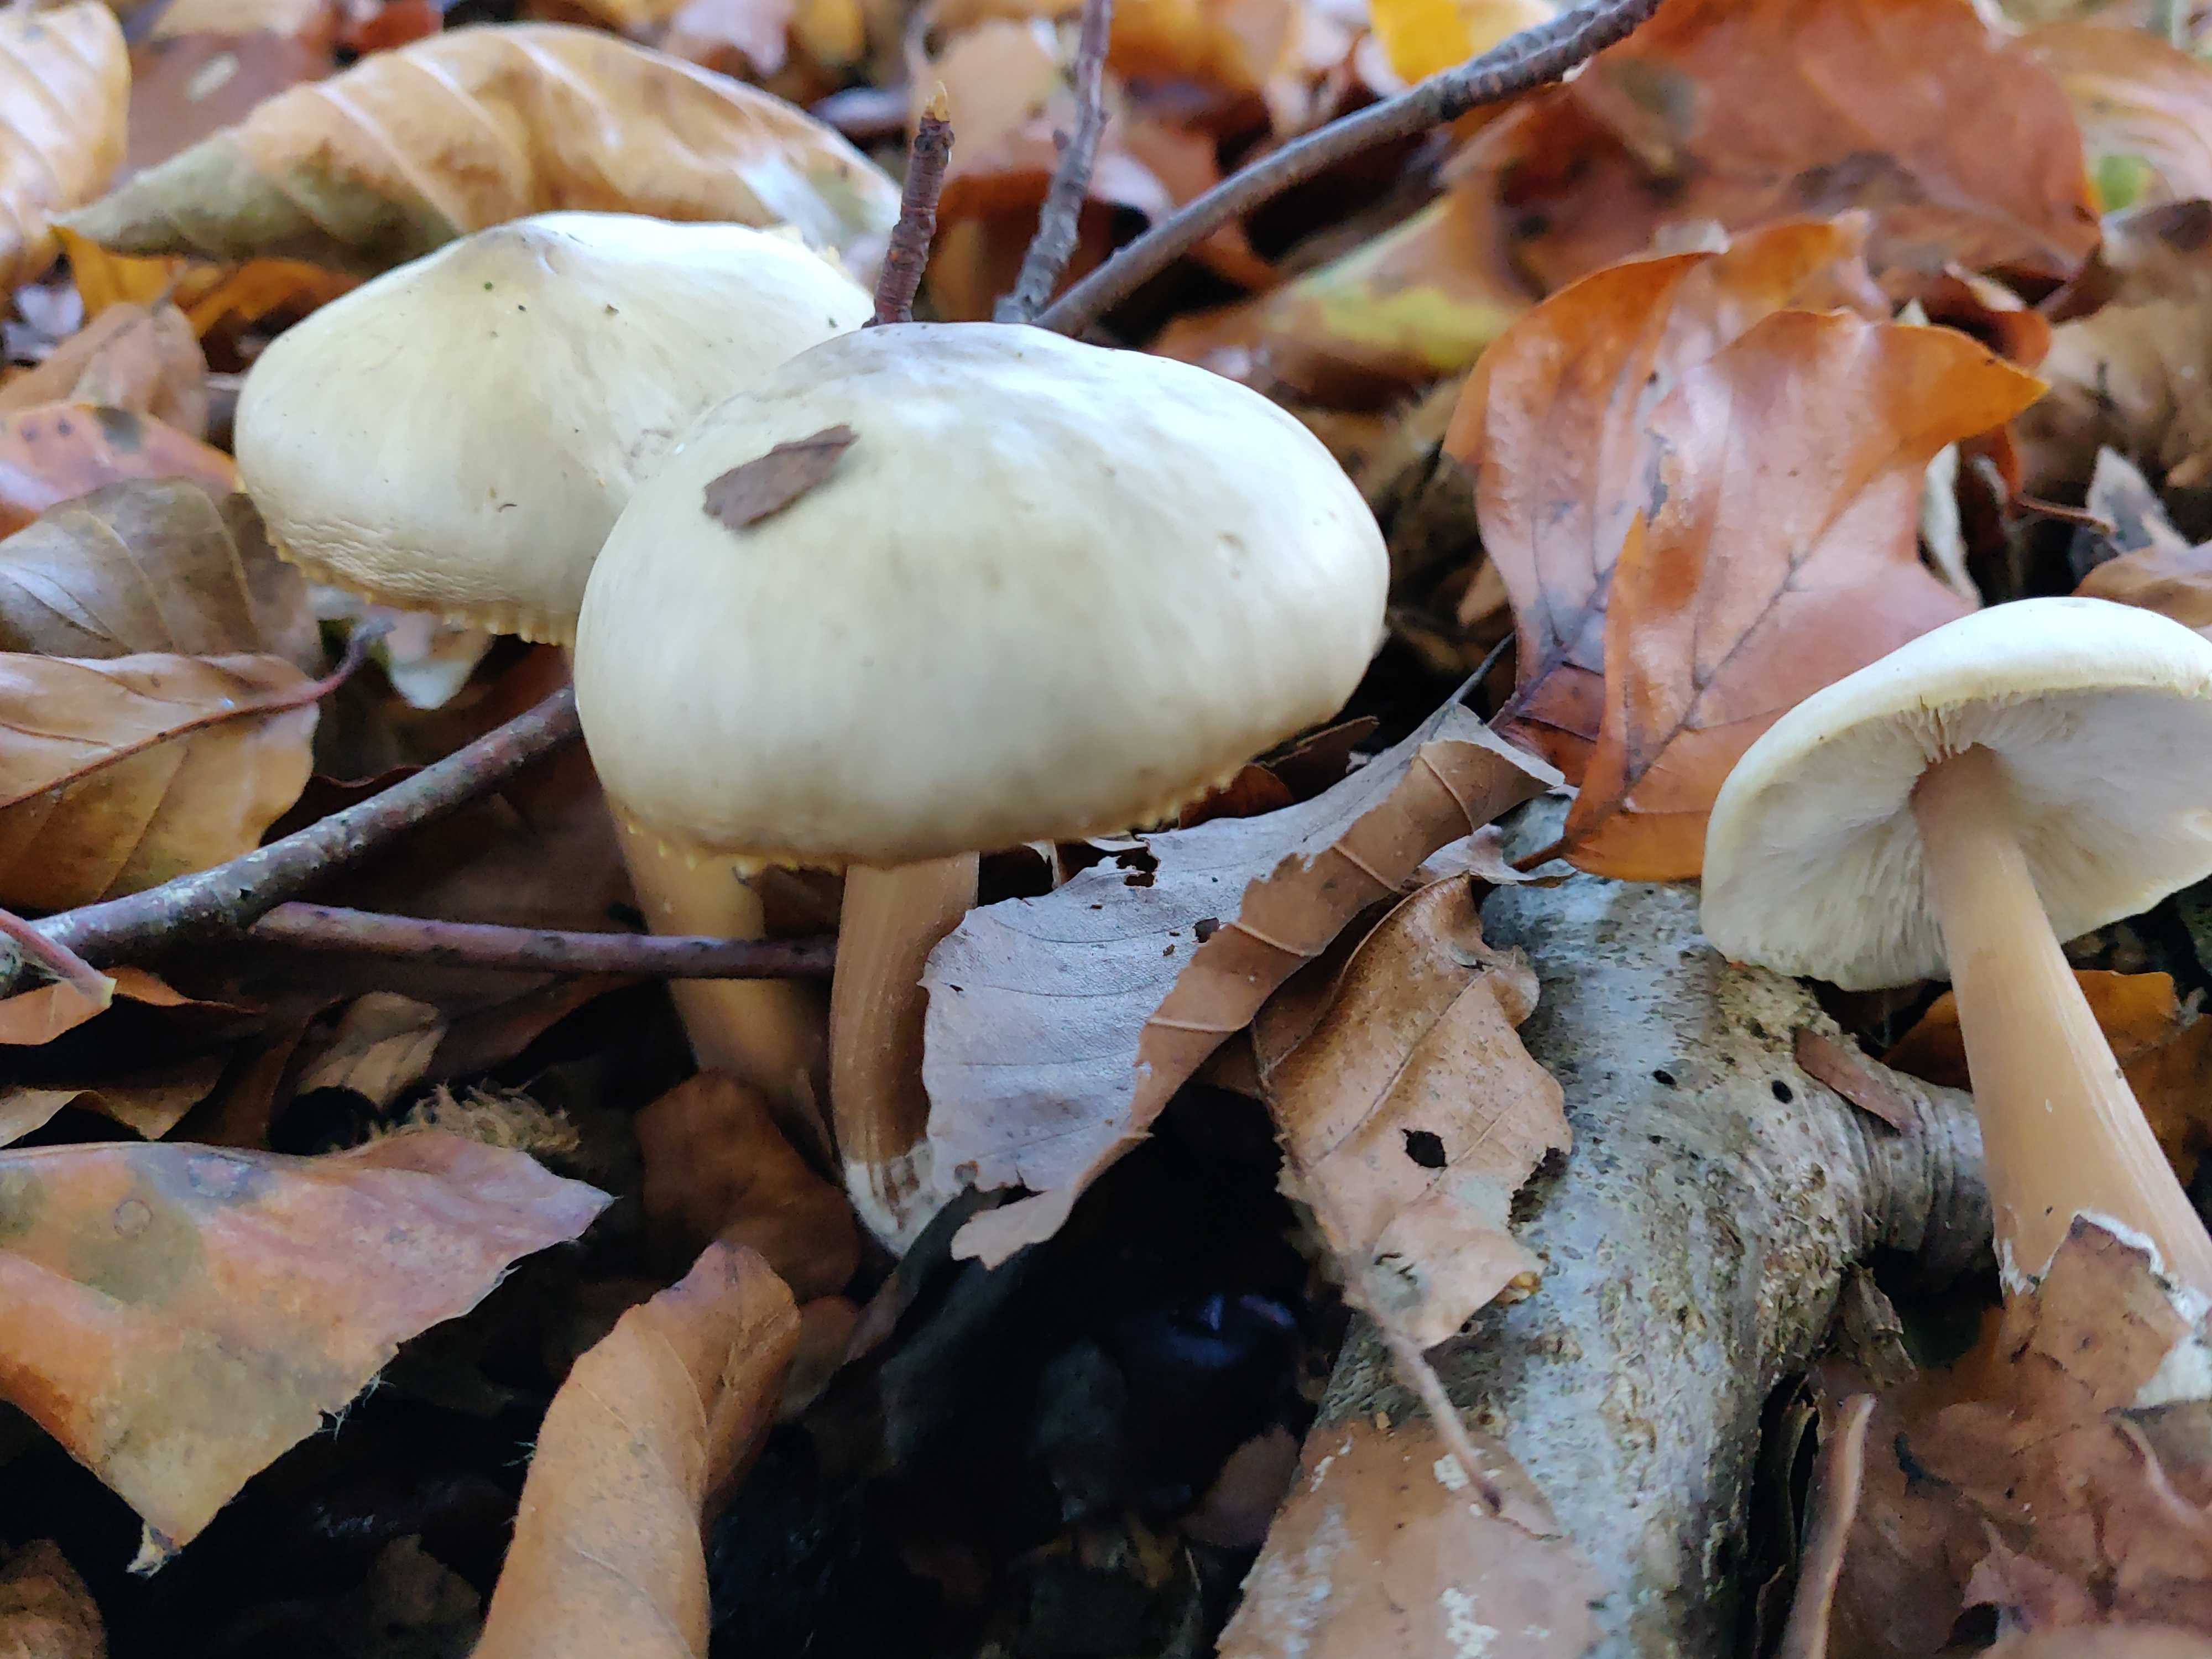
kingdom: Fungi
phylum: Basidiomycota
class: Agaricomycetes
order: Agaricales
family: Omphalotaceae
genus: Rhodocollybia
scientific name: Rhodocollybia asema
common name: horngrå fladhat
